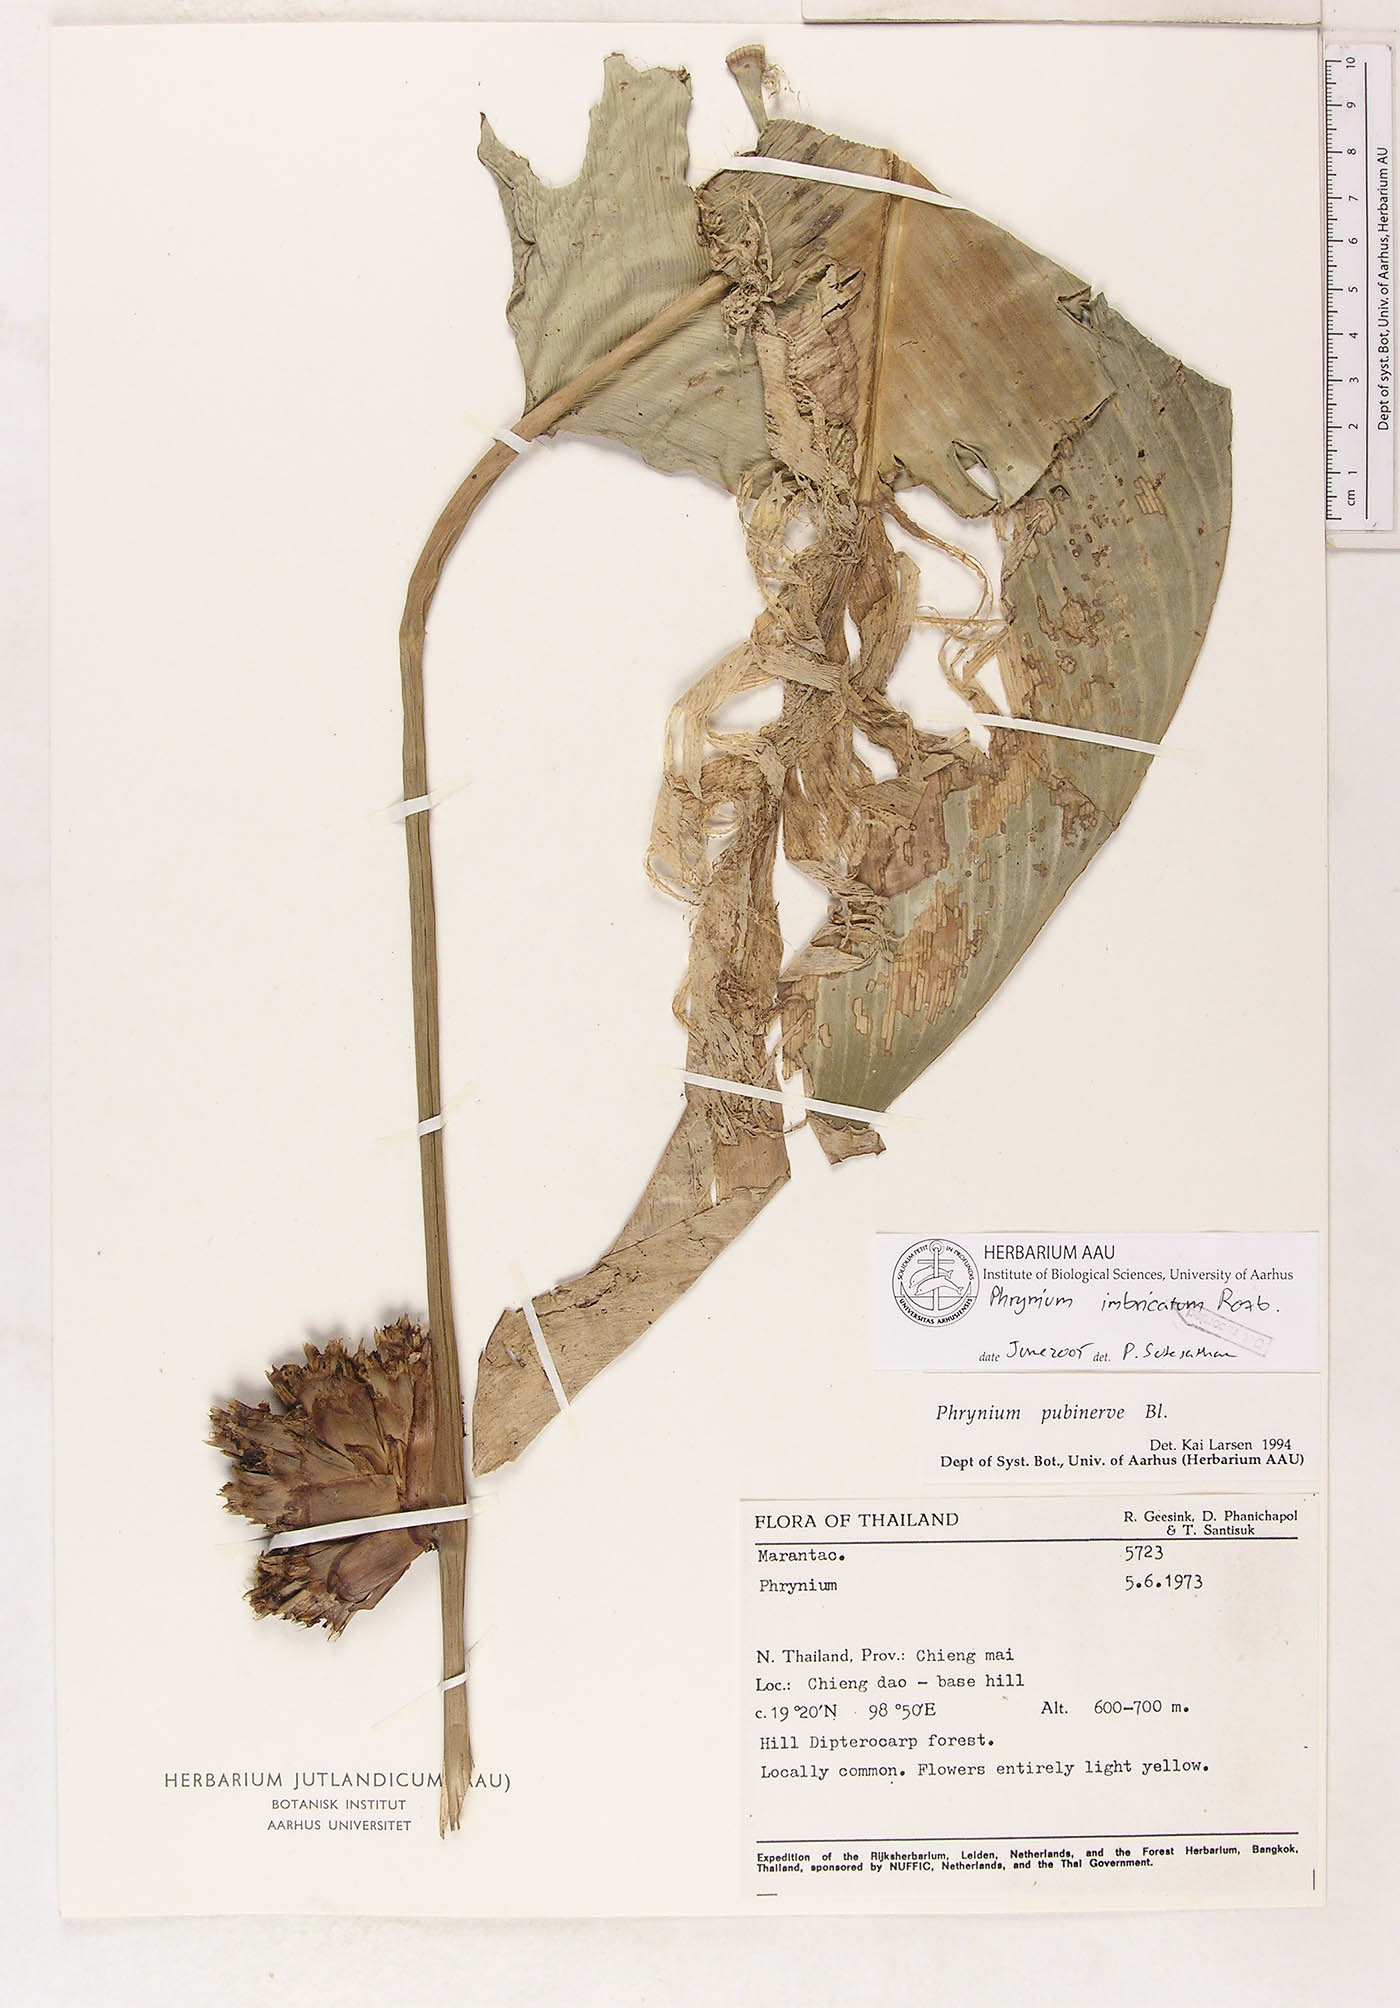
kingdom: Plantae
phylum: Tracheophyta
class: Liliopsida
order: Zingiberales
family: Marantaceae
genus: Phrynium
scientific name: Phrynium imbricatum
